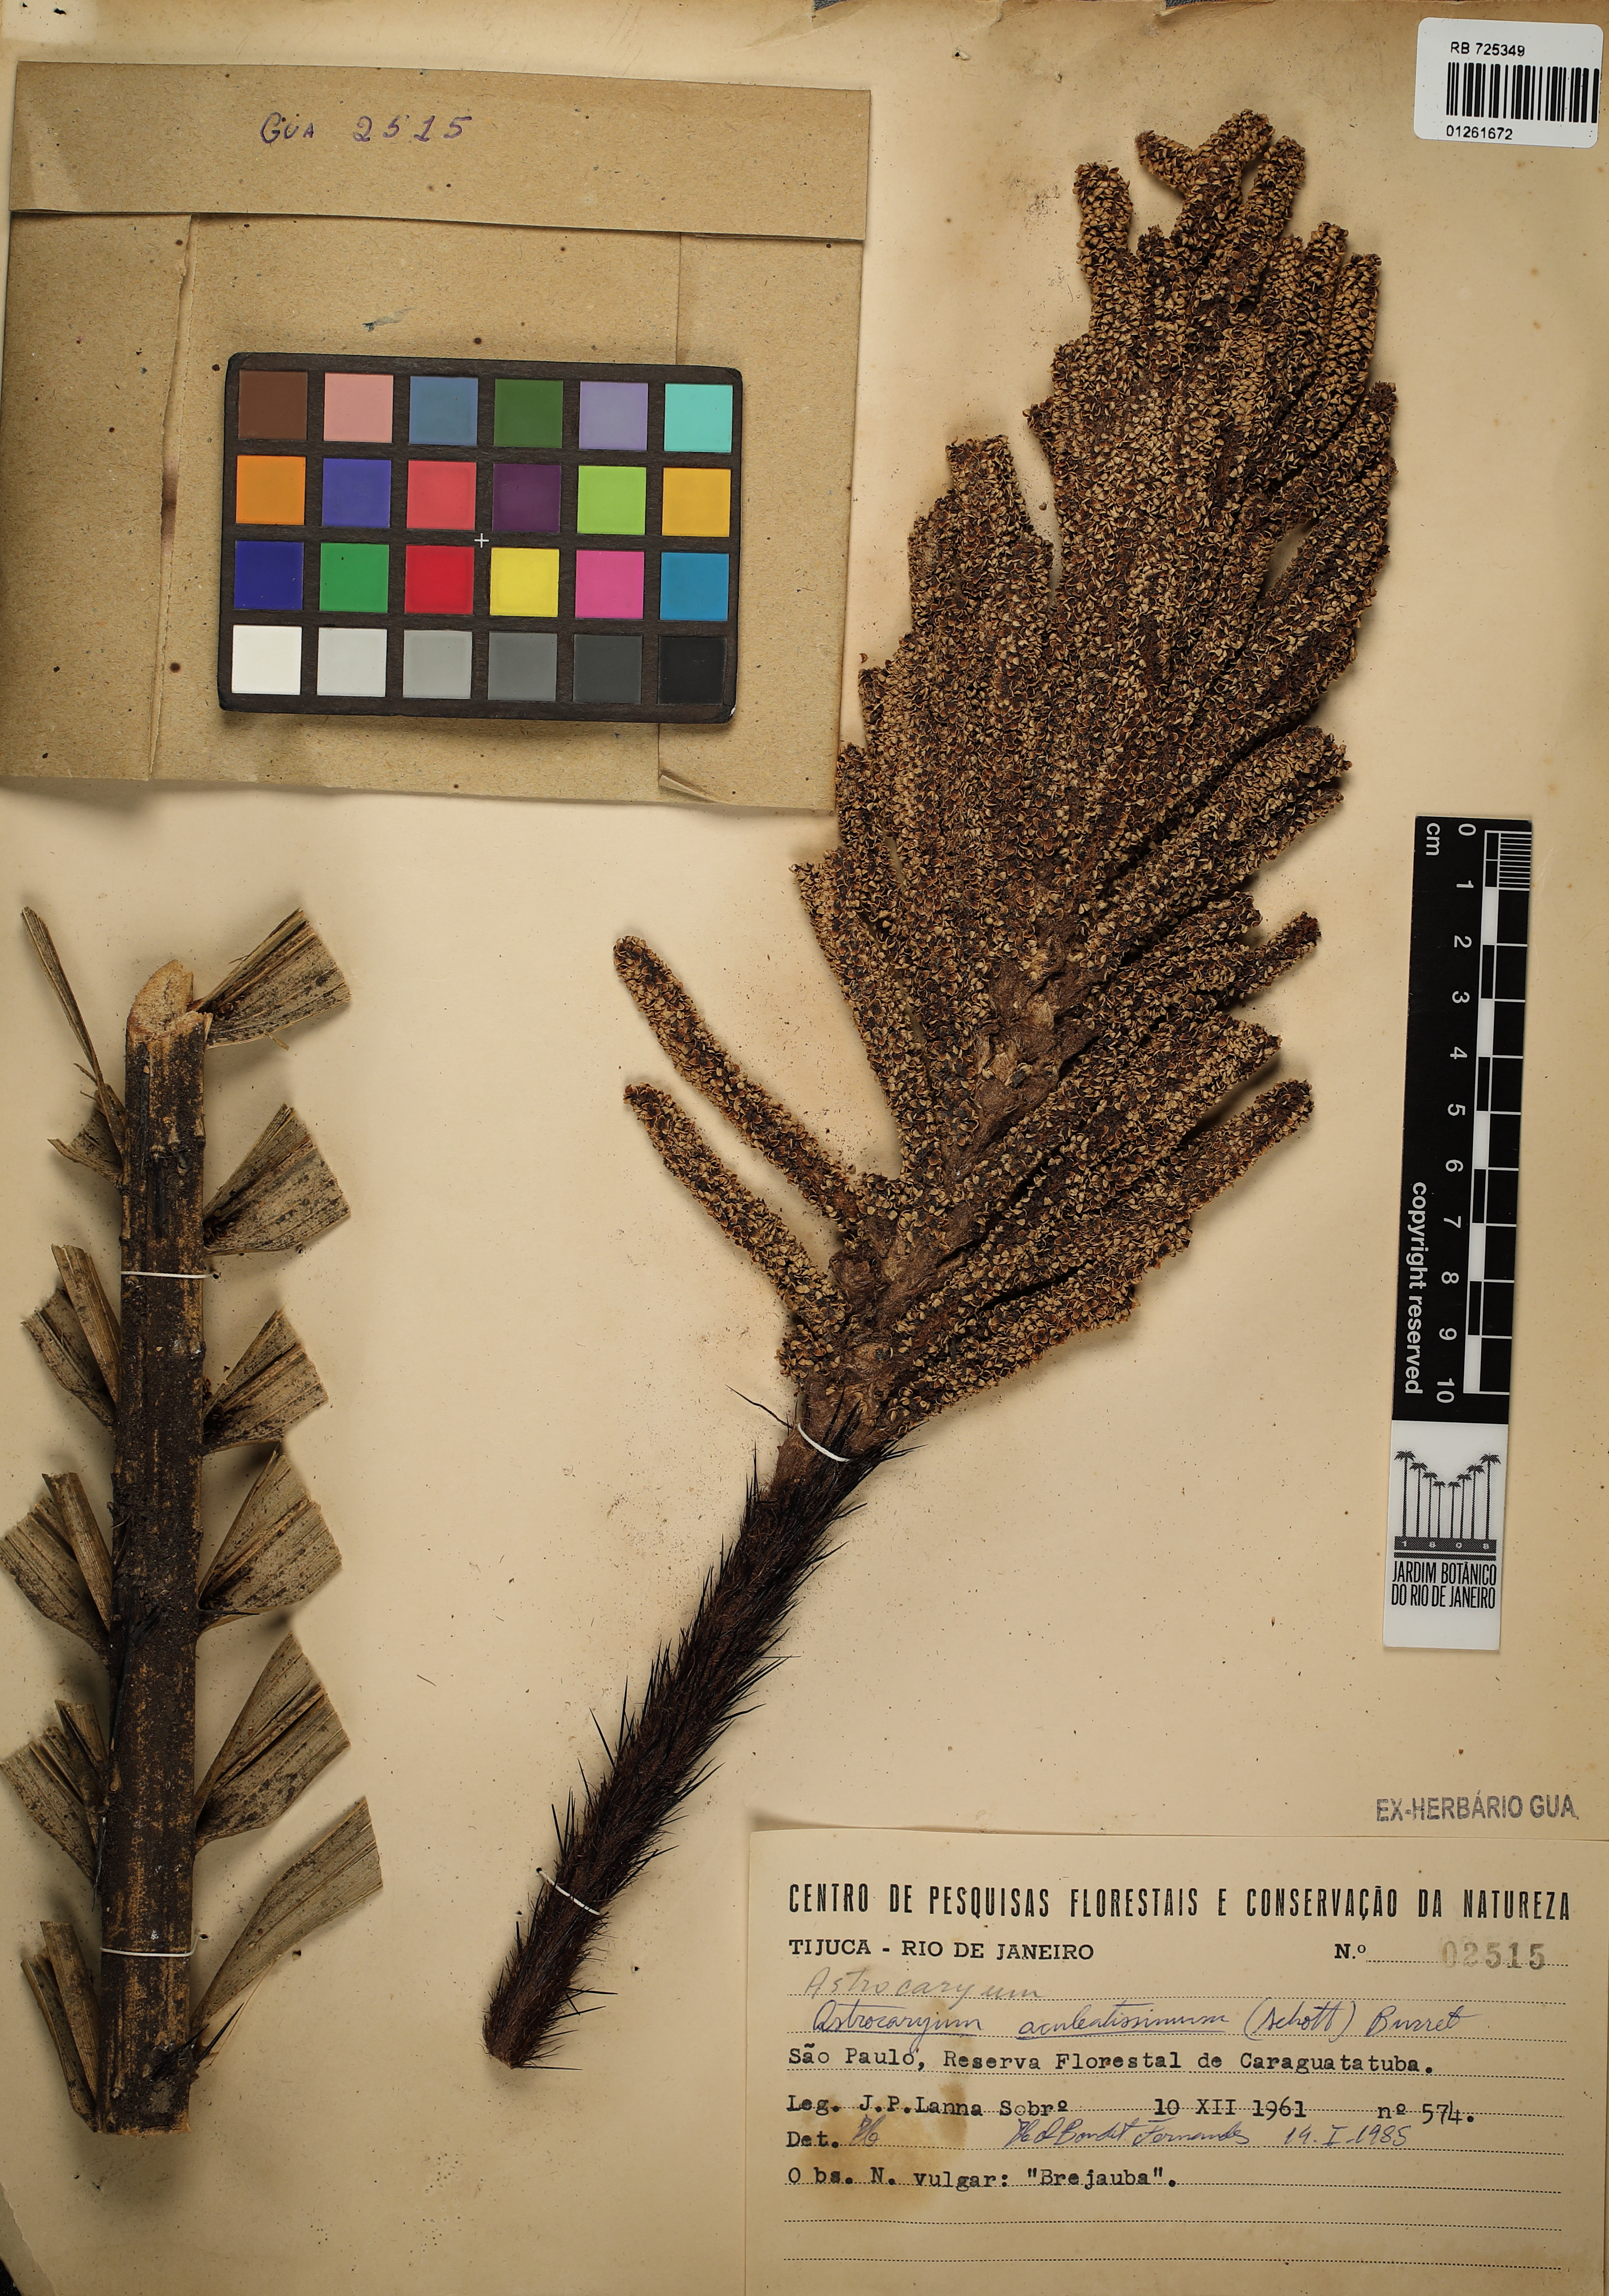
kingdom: Plantae
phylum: Tracheophyta
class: Liliopsida
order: Arecales
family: Arecaceae
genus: Astrocaryum
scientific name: Astrocaryum aculeatissimum
